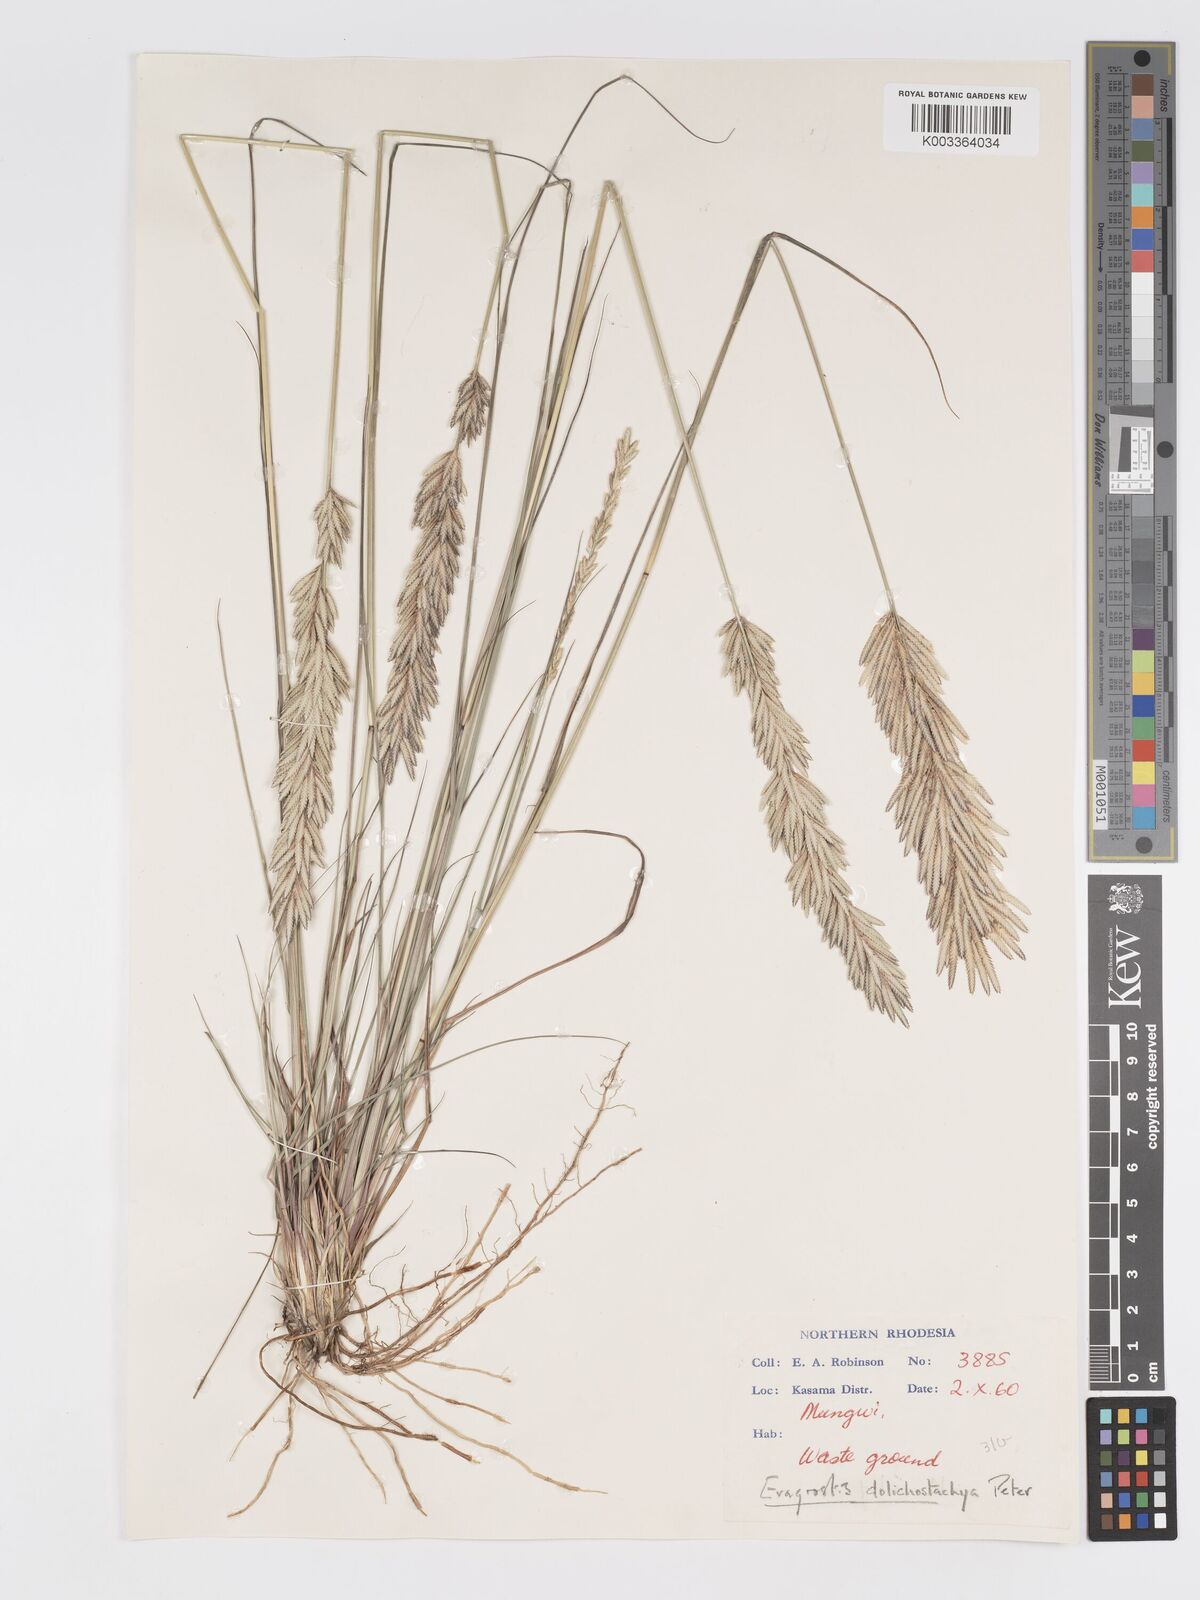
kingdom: Plantae
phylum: Tracheophyta
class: Liliopsida
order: Poales
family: Poaceae
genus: Eragrostis
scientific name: Eragrostis chapelieri
